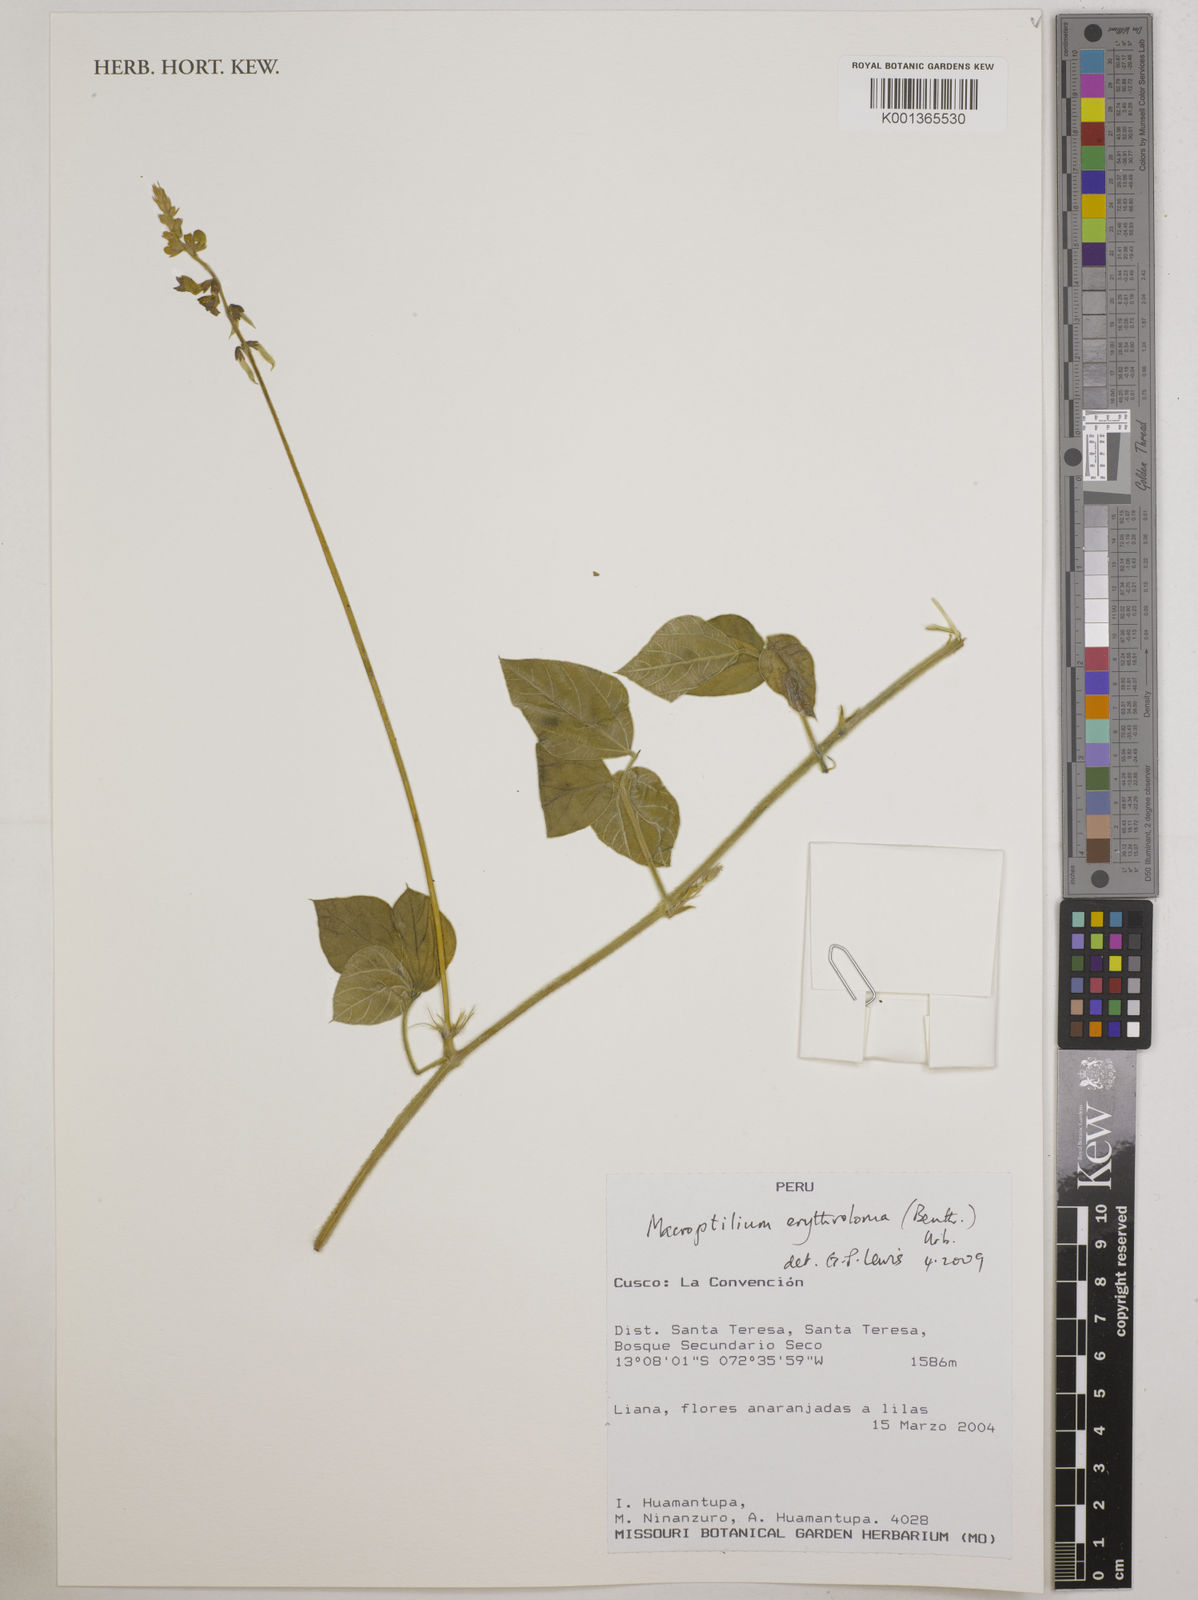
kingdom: Plantae
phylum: Tracheophyta
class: Magnoliopsida
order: Fabales
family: Fabaceae
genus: Macroptilium
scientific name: Macroptilium erythroloma
